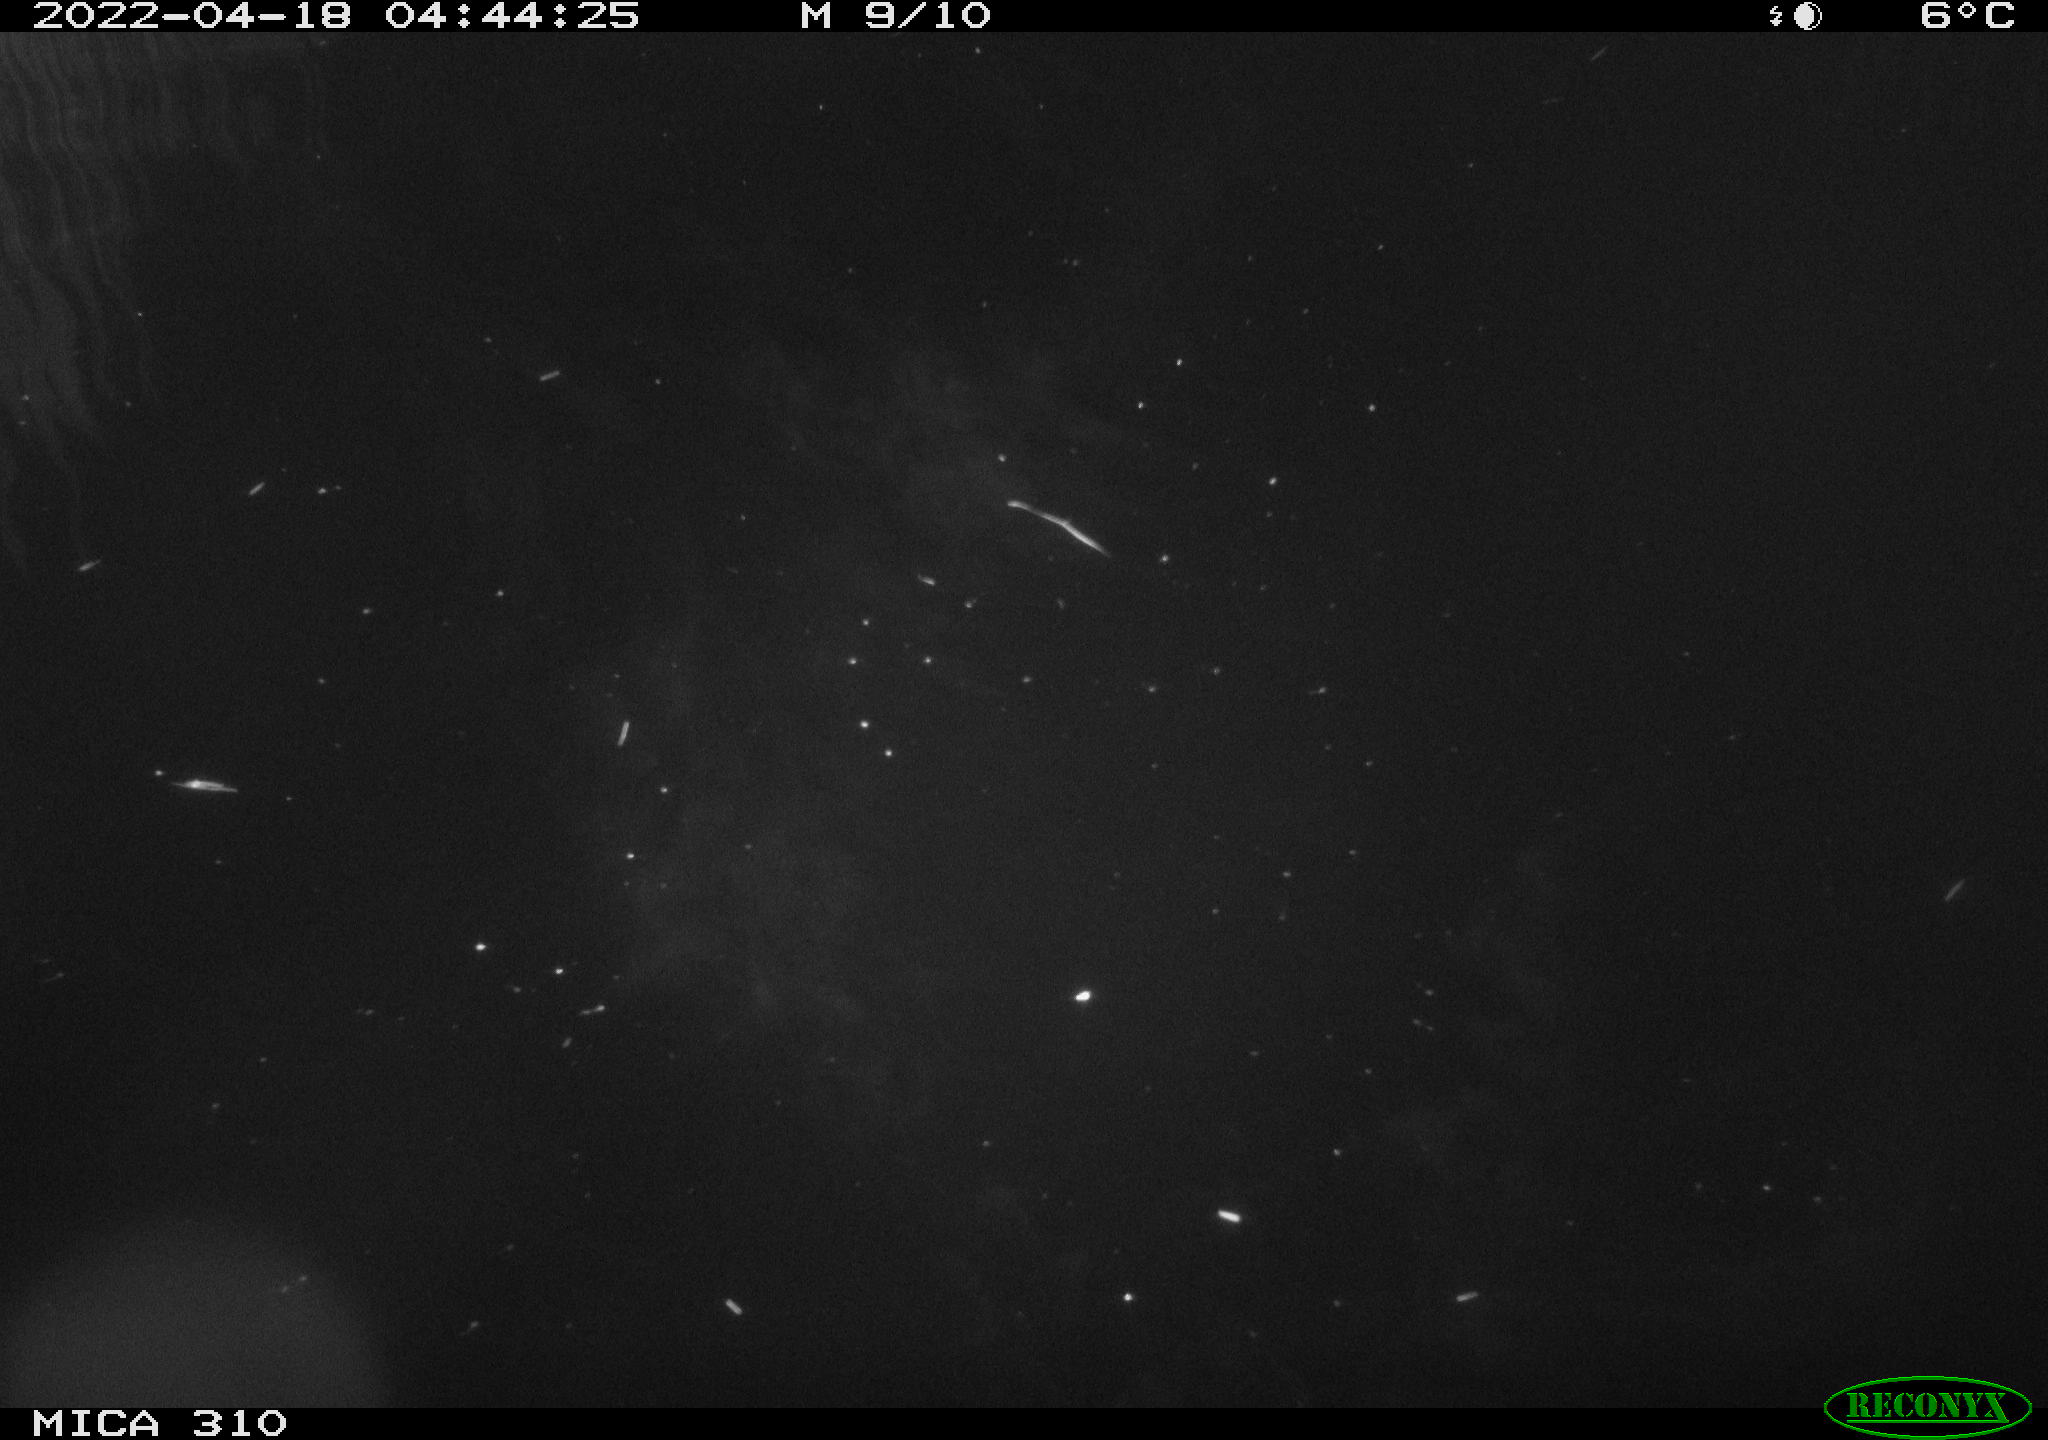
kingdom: Animalia
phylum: Chordata
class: Aves
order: Anseriformes
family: Anatidae
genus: Anas
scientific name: Anas platyrhynchos
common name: Mallard
